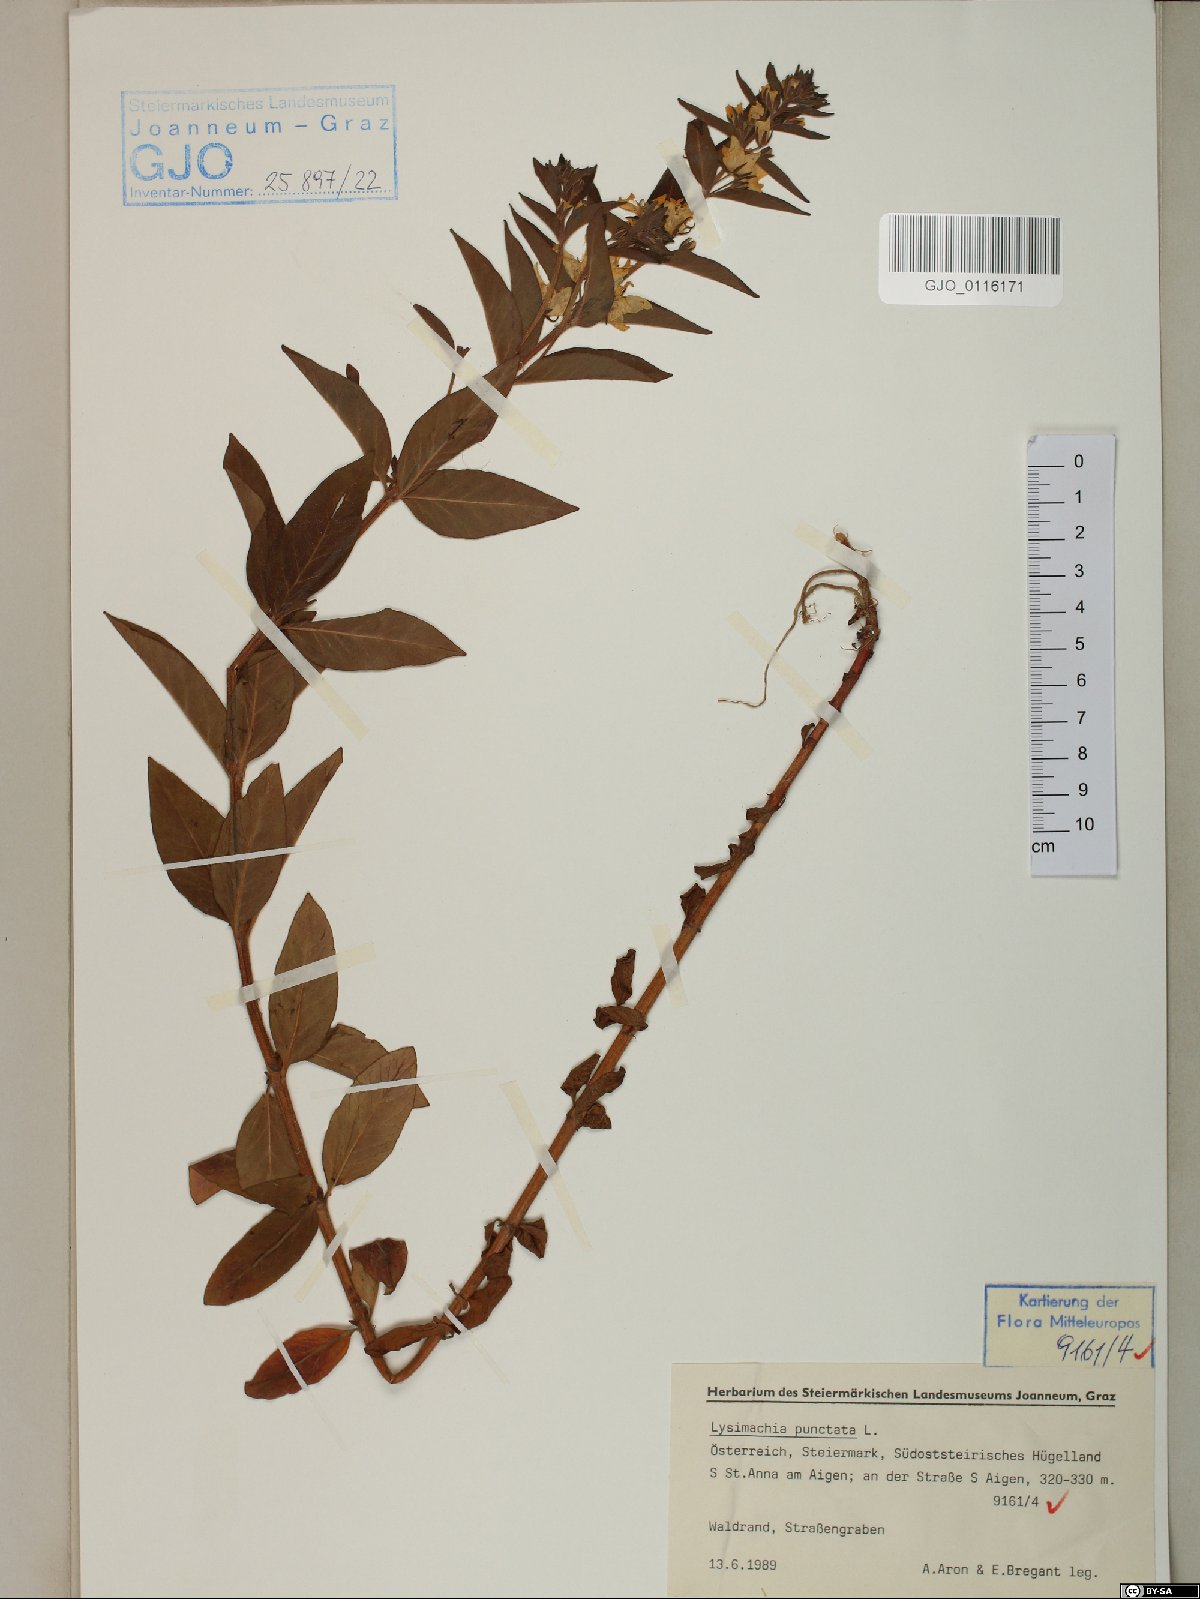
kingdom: Plantae
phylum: Tracheophyta
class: Magnoliopsida
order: Ericales
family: Primulaceae
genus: Lysimachia
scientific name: Lysimachia punctata
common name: Dotted loosestrife
